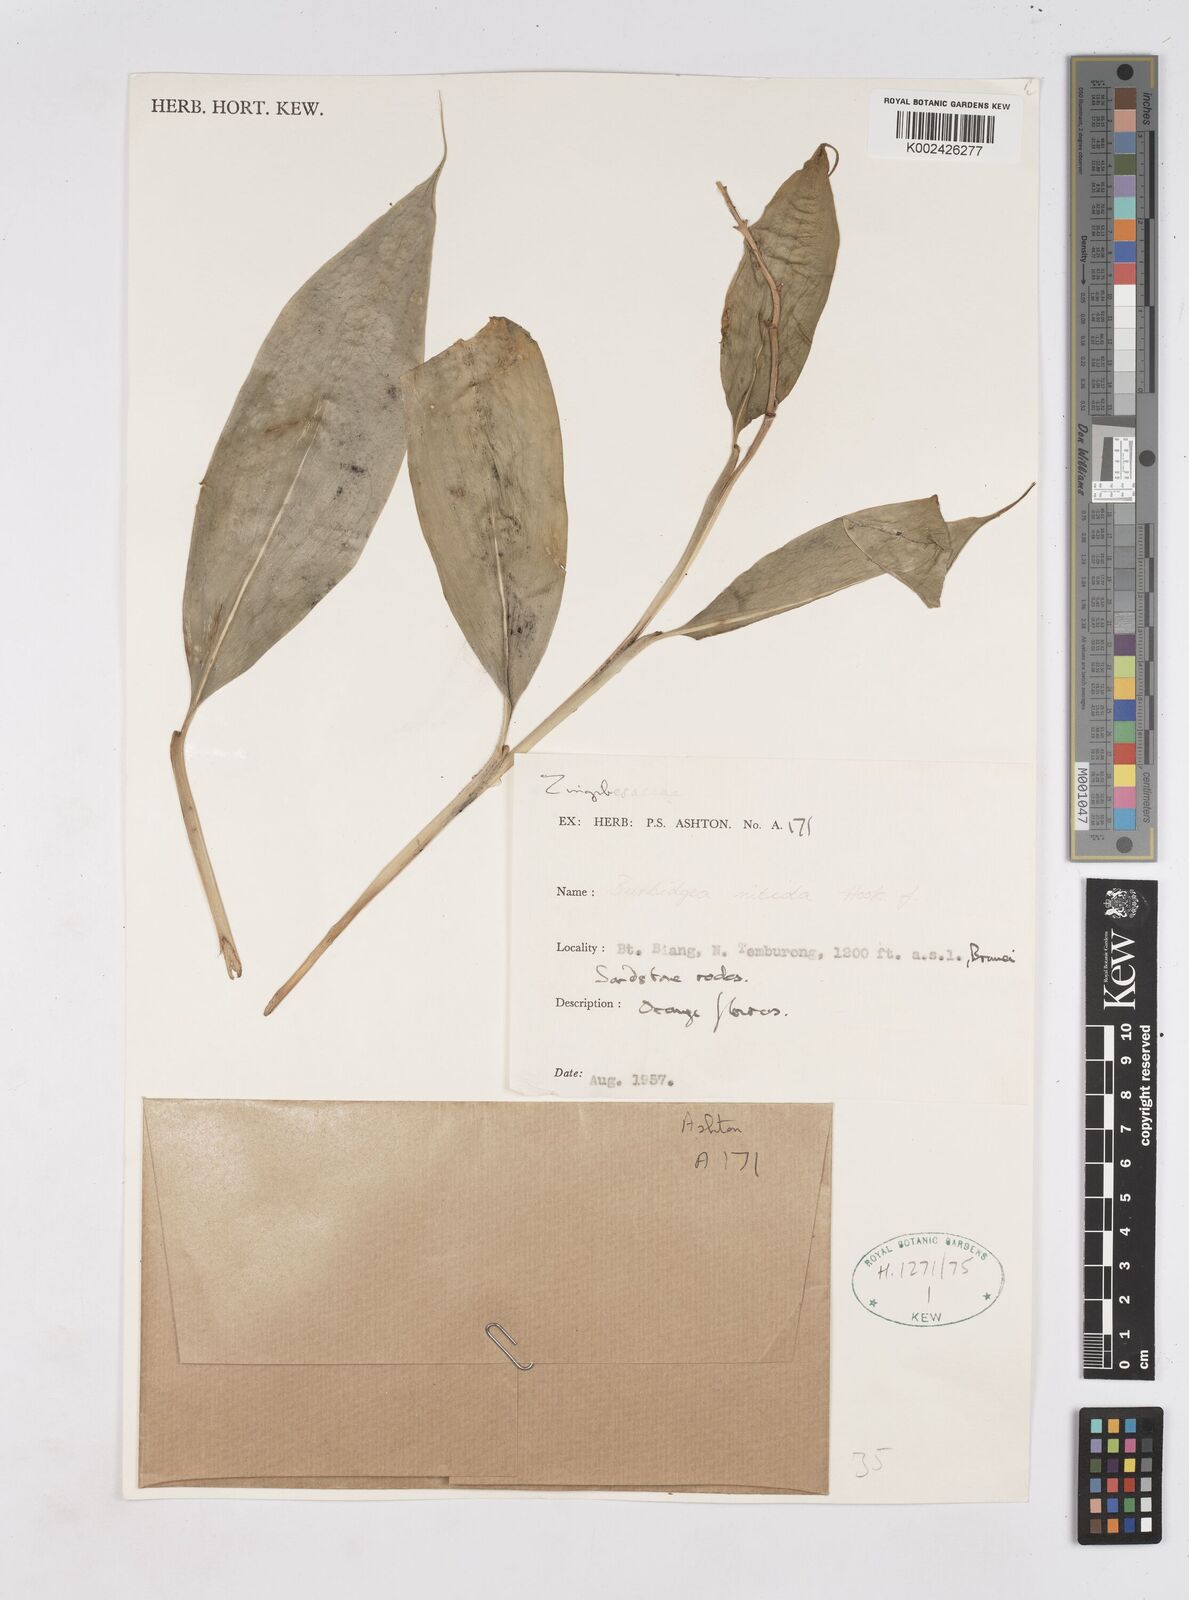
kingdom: Plantae
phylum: Tracheophyta
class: Liliopsida
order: Zingiberales
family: Zingiberaceae
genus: Burbidgea
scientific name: Burbidgea nitida
